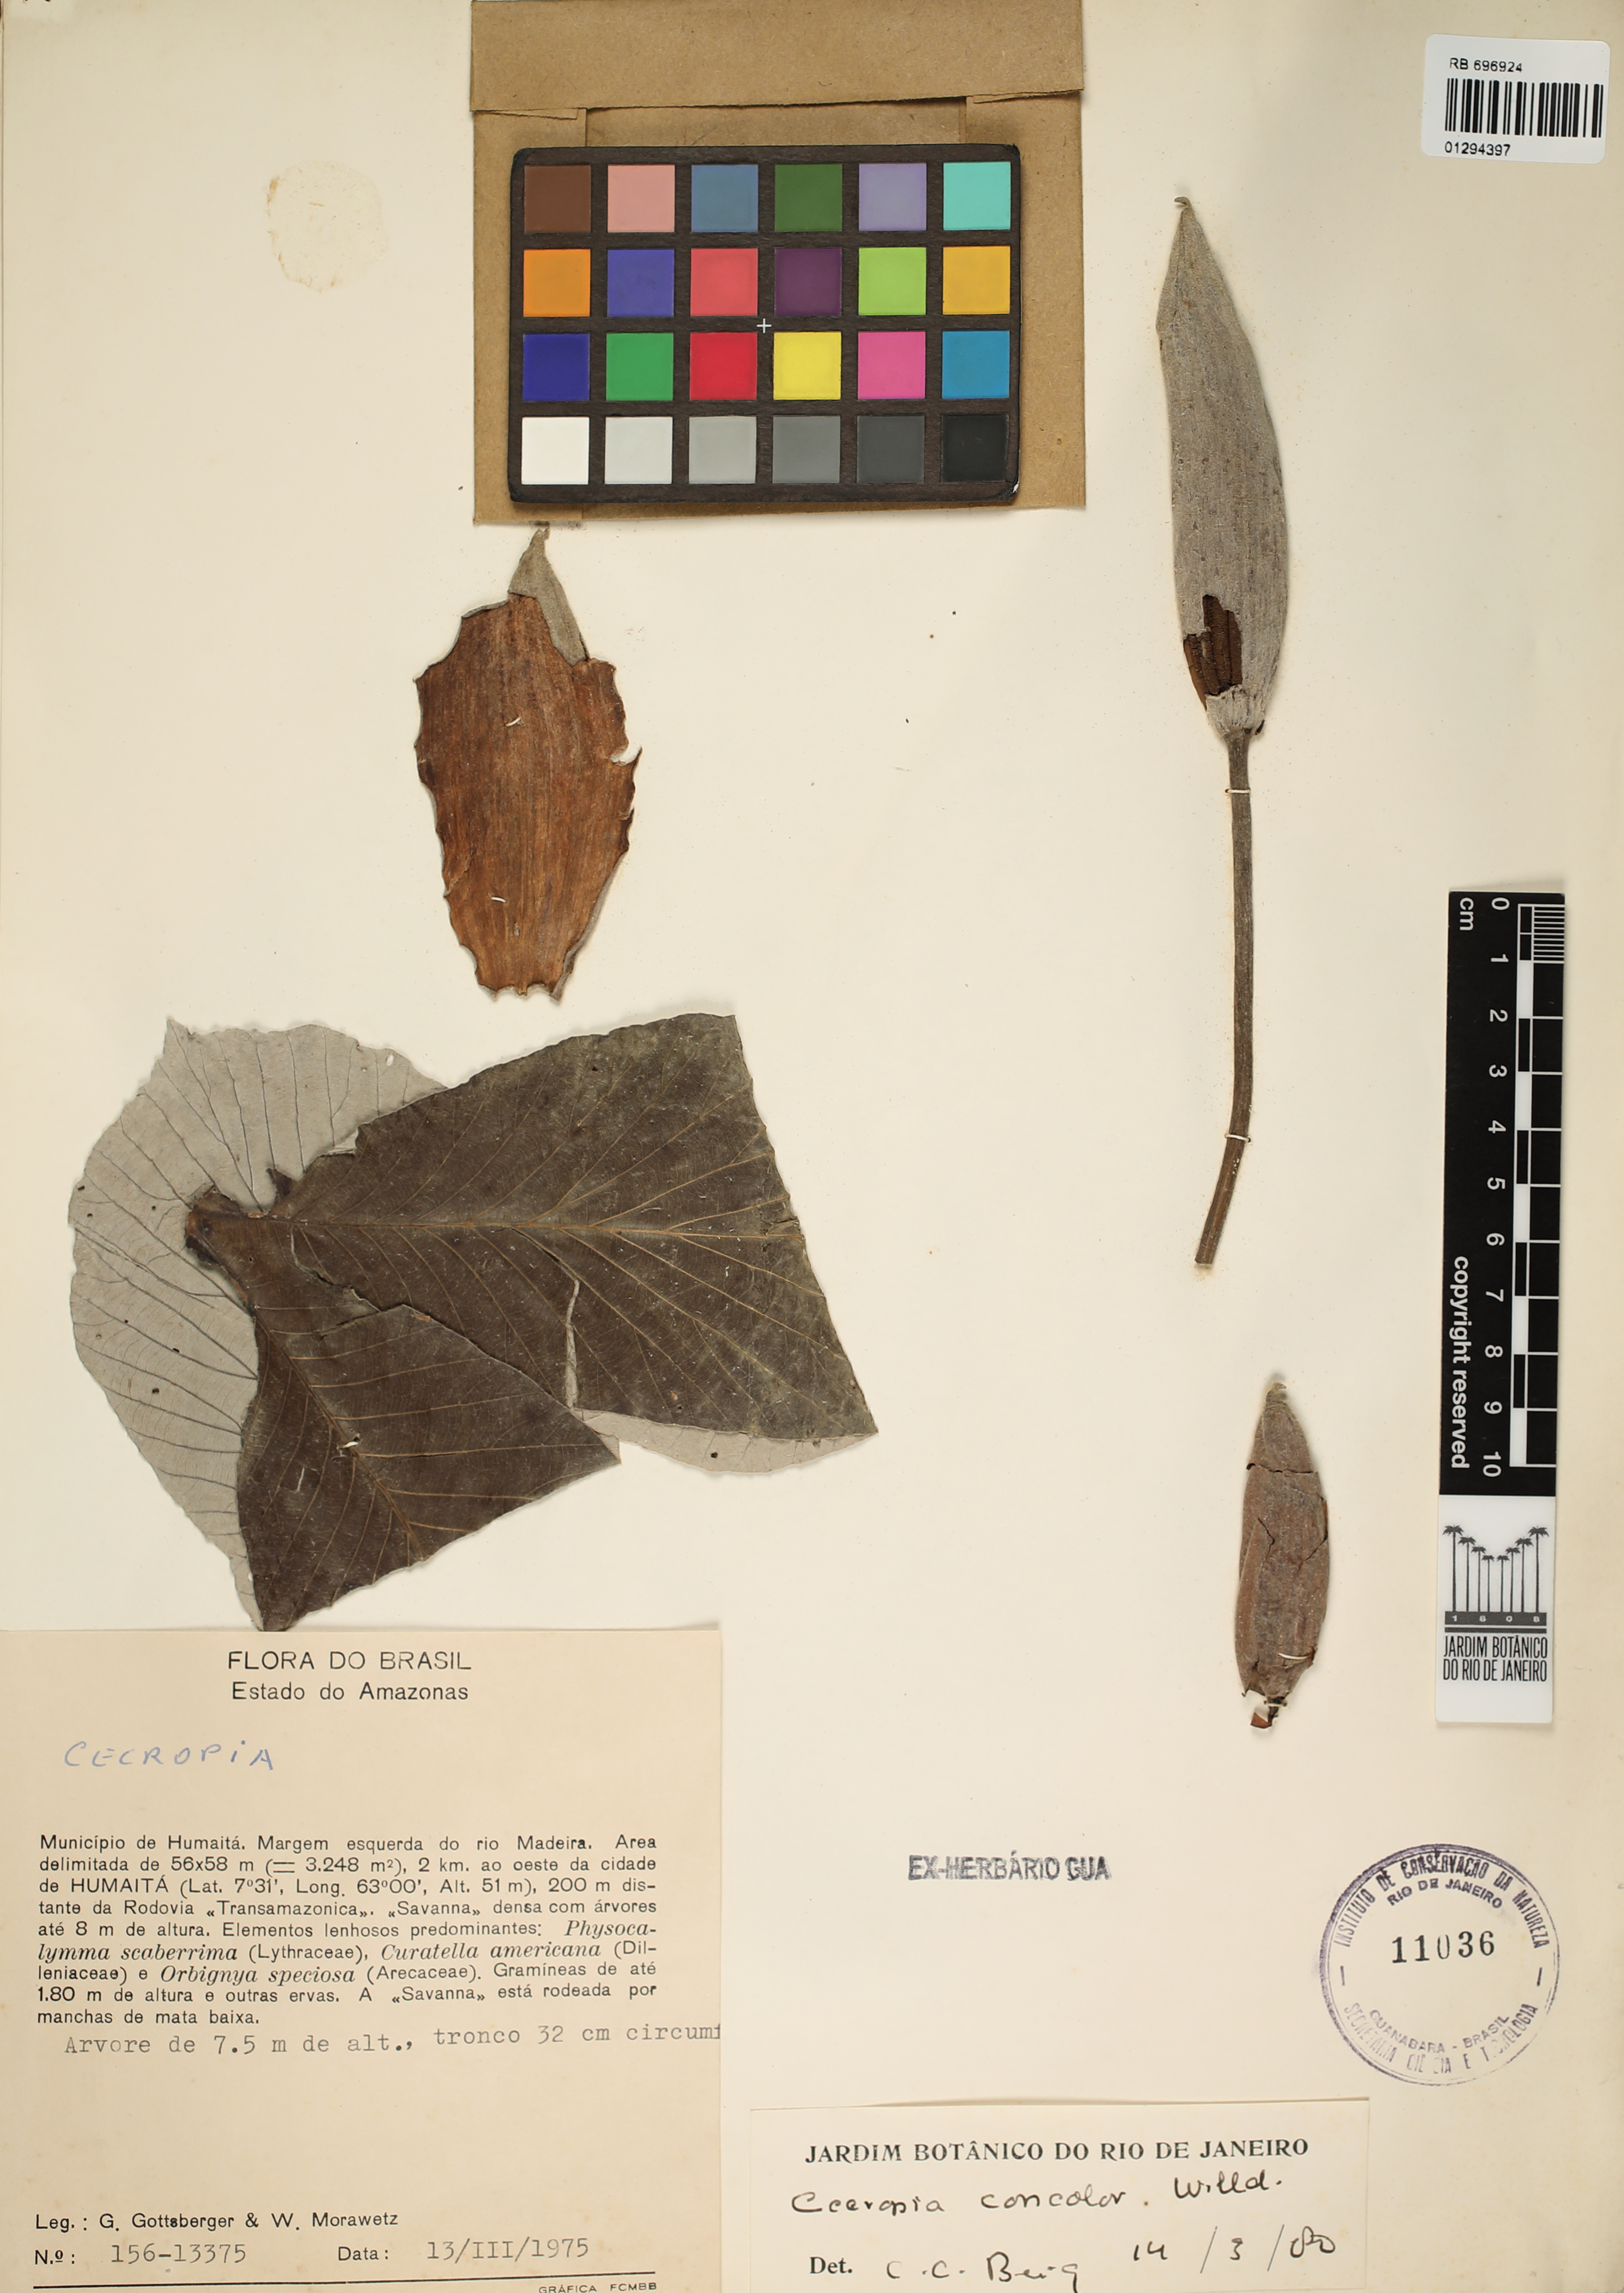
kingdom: Plantae
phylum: Tracheophyta
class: Magnoliopsida
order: Rosales
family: Urticaceae
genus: Cecropia
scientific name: Cecropia concolor
